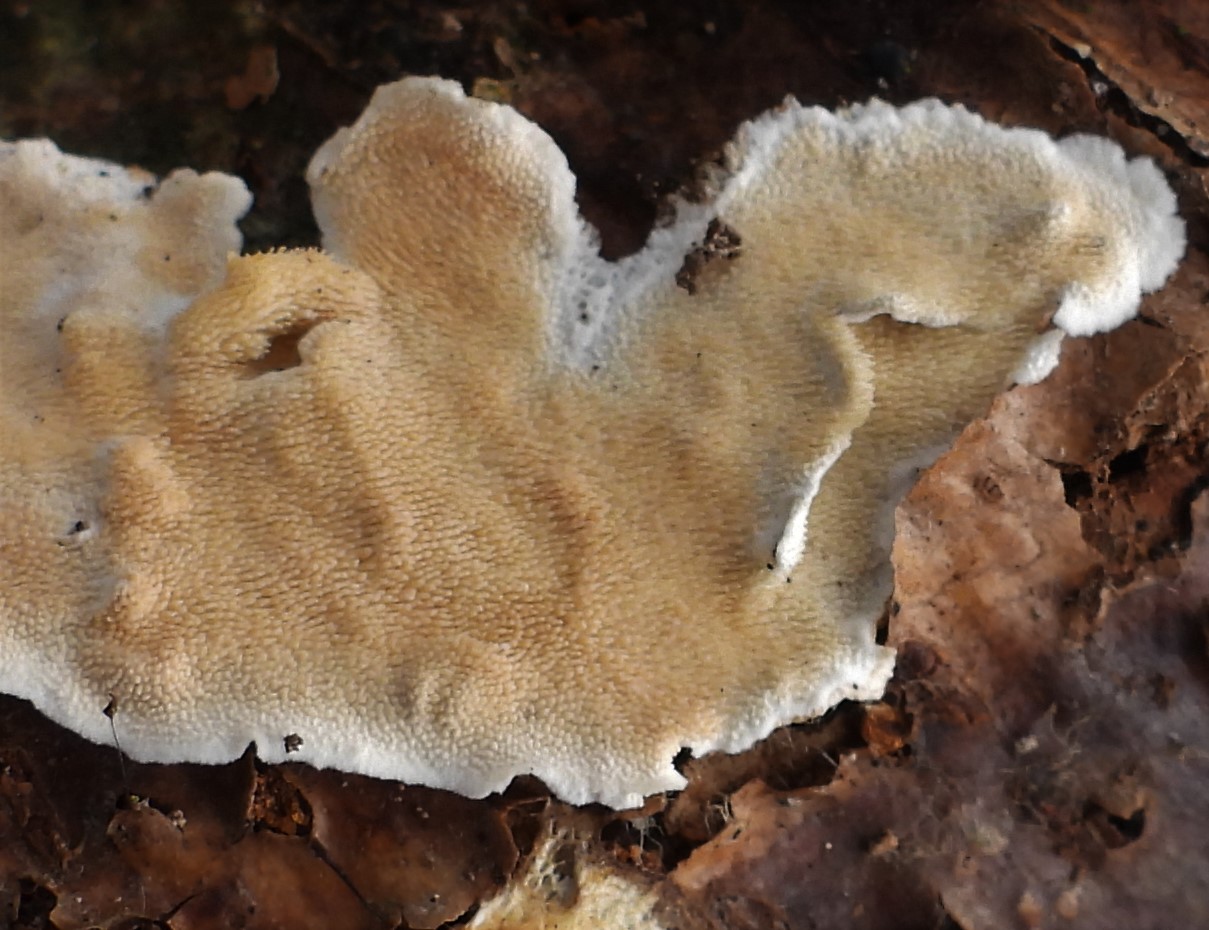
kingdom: Fungi
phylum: Basidiomycota
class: Agaricomycetes
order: Polyporales
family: Steccherinaceae
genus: Steccherinum
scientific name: Steccherinum ochraceum
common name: almindelig skønpig
